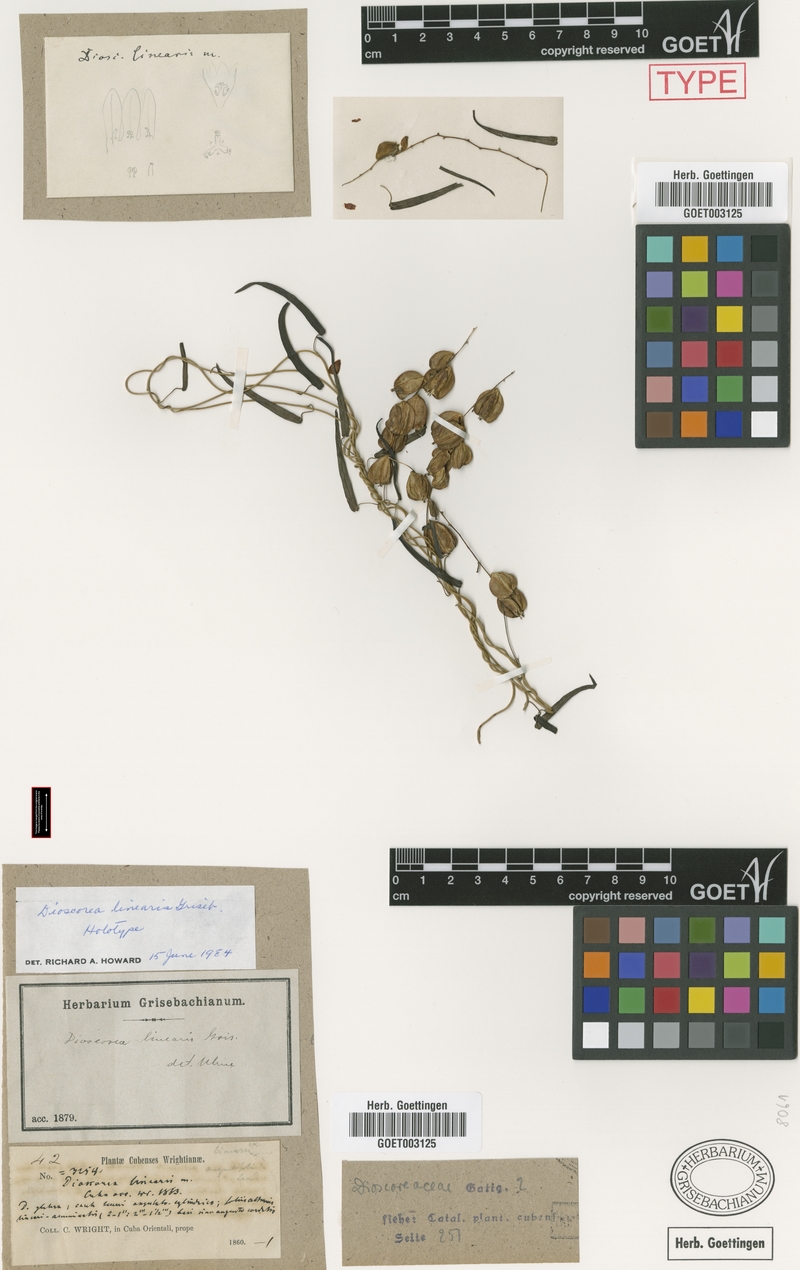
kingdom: Plantae
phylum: Tracheophyta
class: Liliopsida
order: Dioscoreales
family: Dioscoreaceae
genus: Dioscorea
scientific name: Dioscorea nipensis
